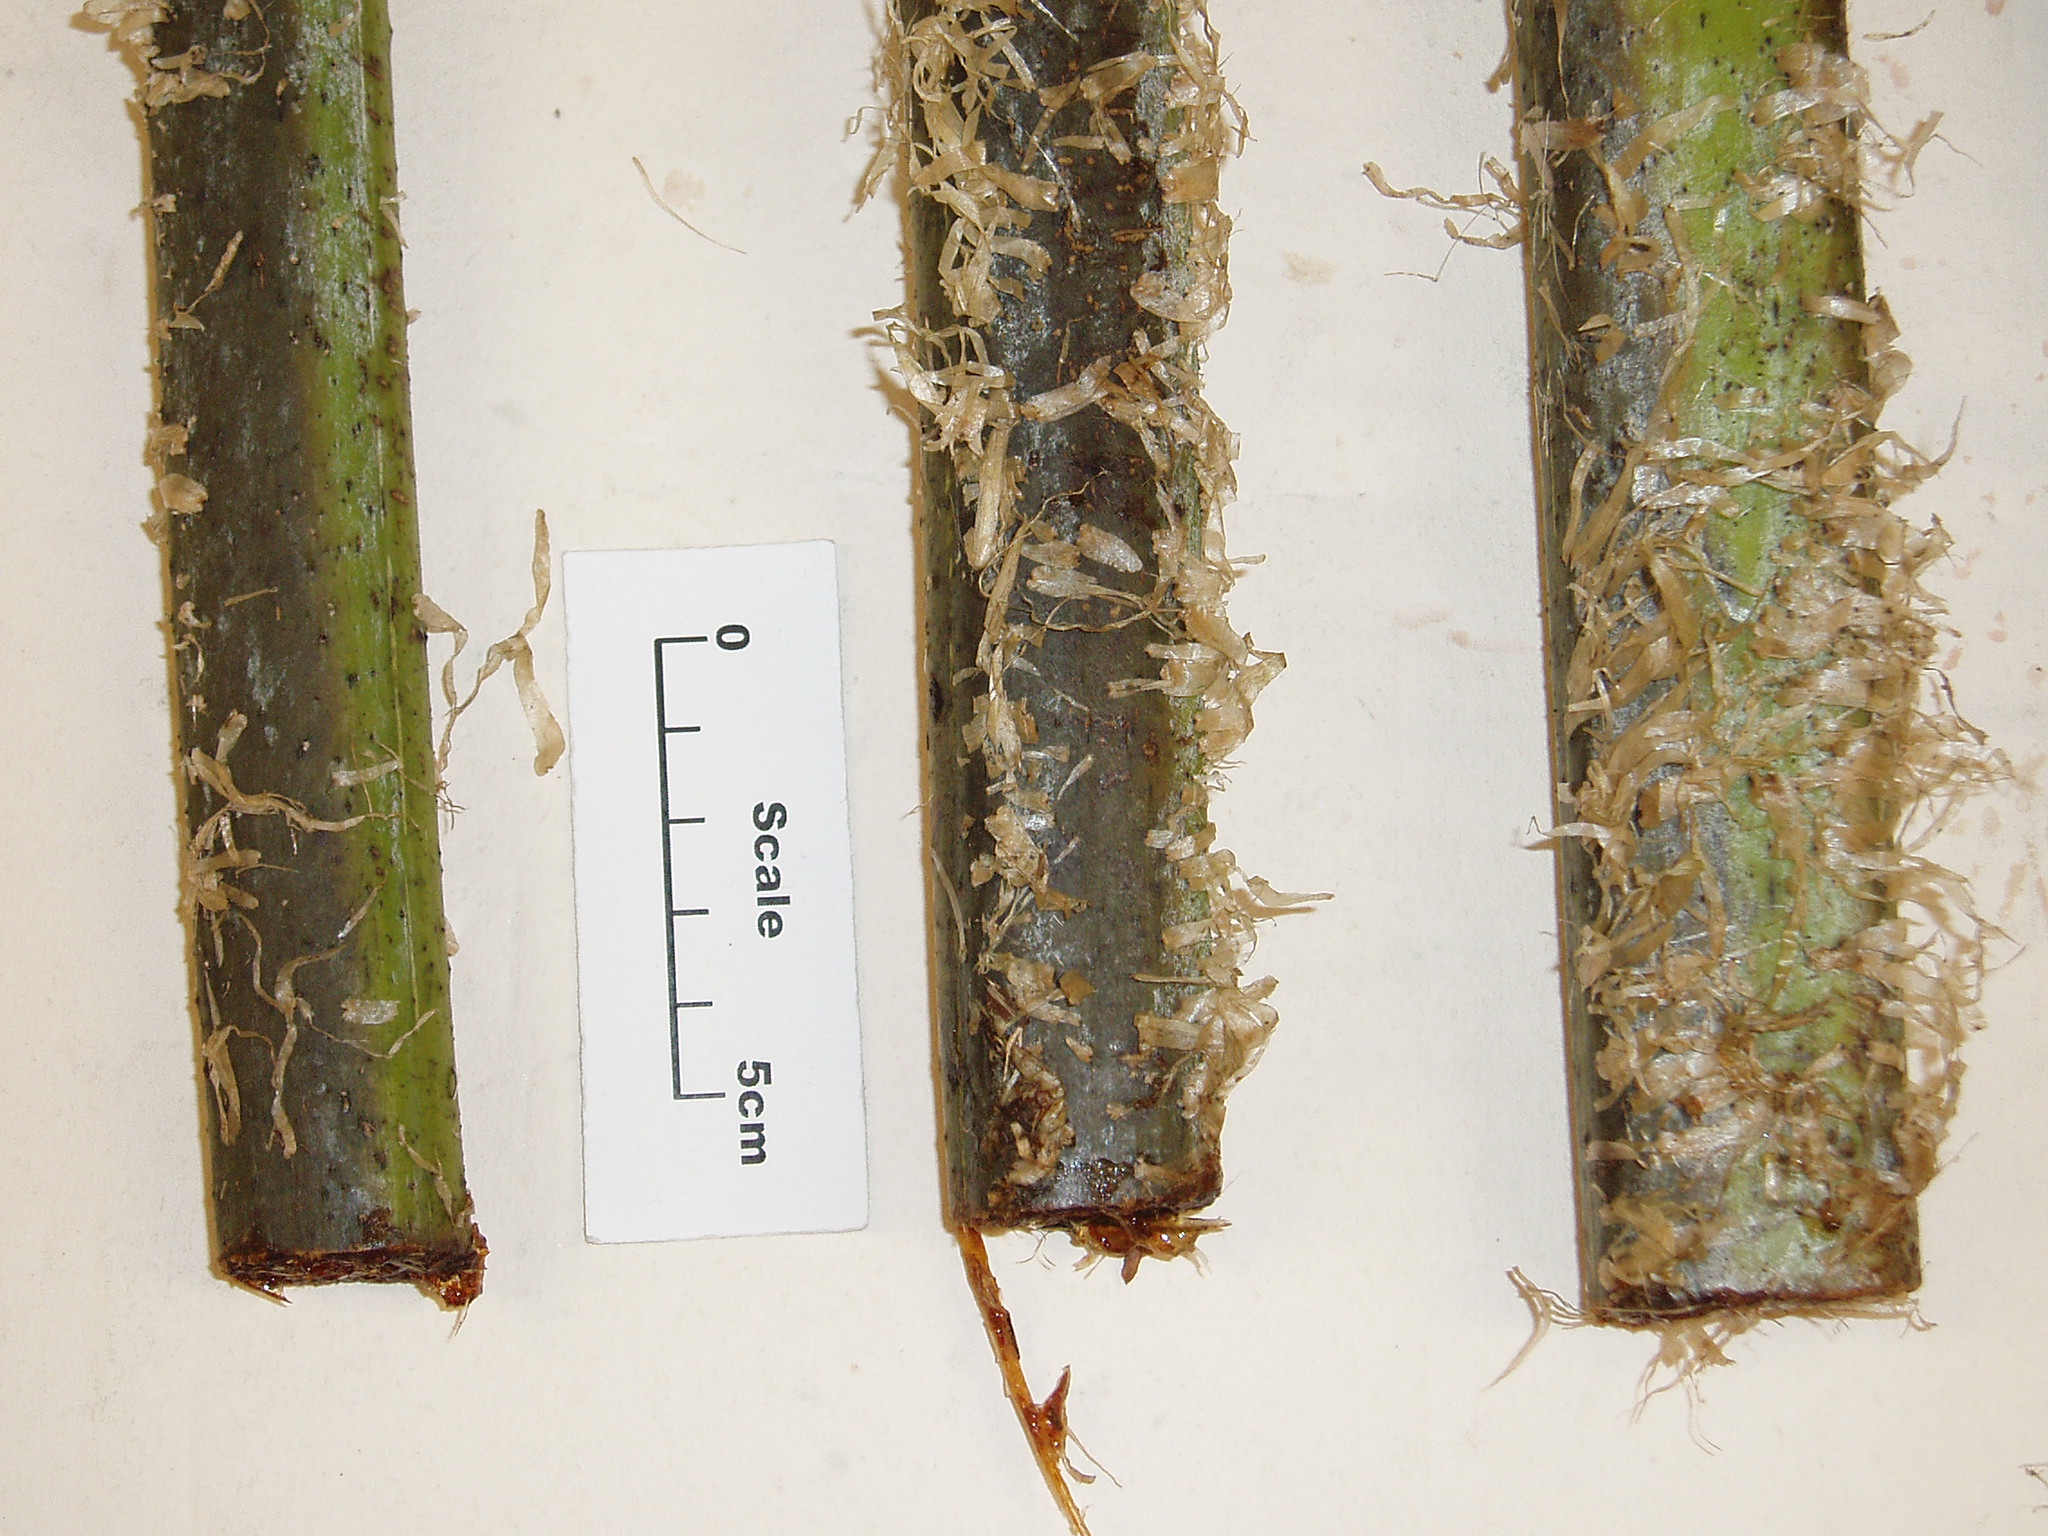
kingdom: Plantae
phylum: Tracheophyta
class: Polypodiopsida
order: Cyatheales
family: Cyatheaceae
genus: Sphaeropteris
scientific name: Sphaeropteris excelsa
